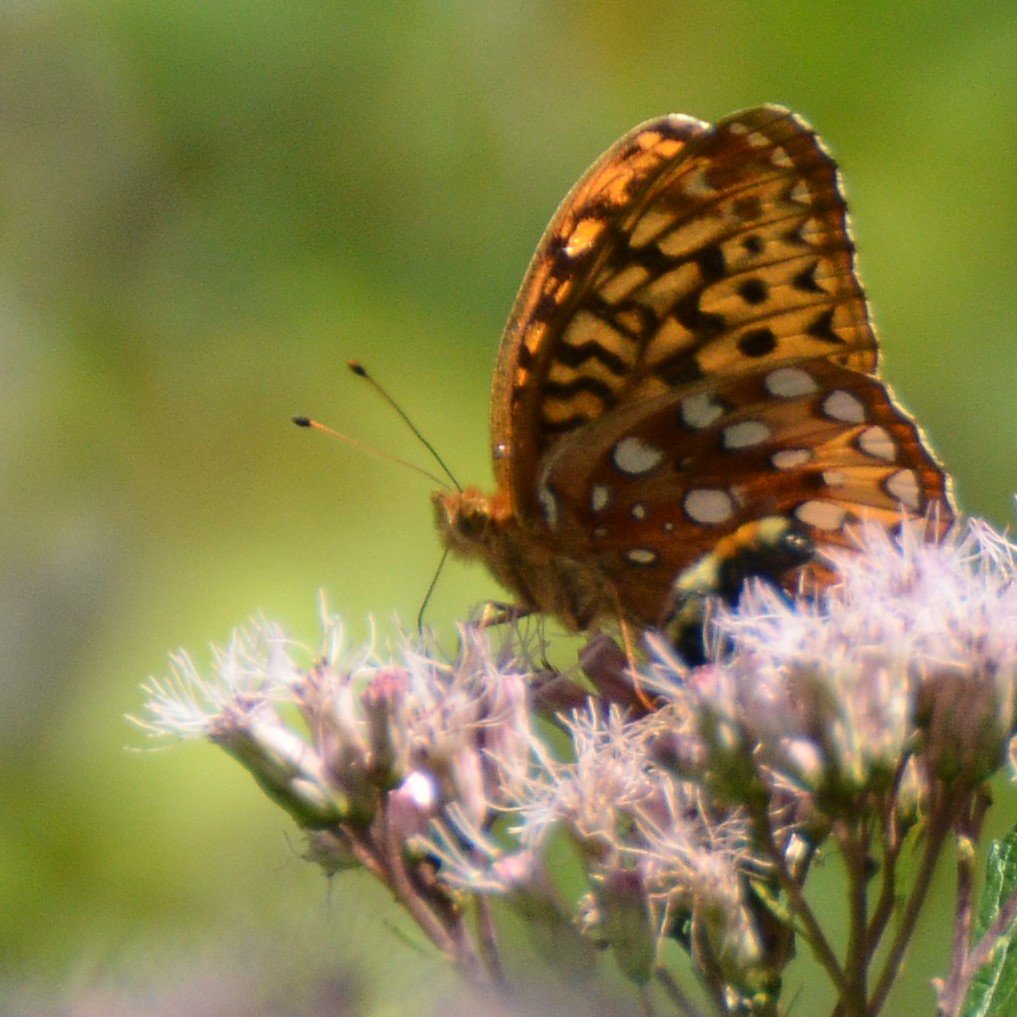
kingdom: Animalia
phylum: Arthropoda
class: Insecta
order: Lepidoptera
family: Nymphalidae
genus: Speyeria
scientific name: Speyeria cybele
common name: Great Spangled Fritillary
